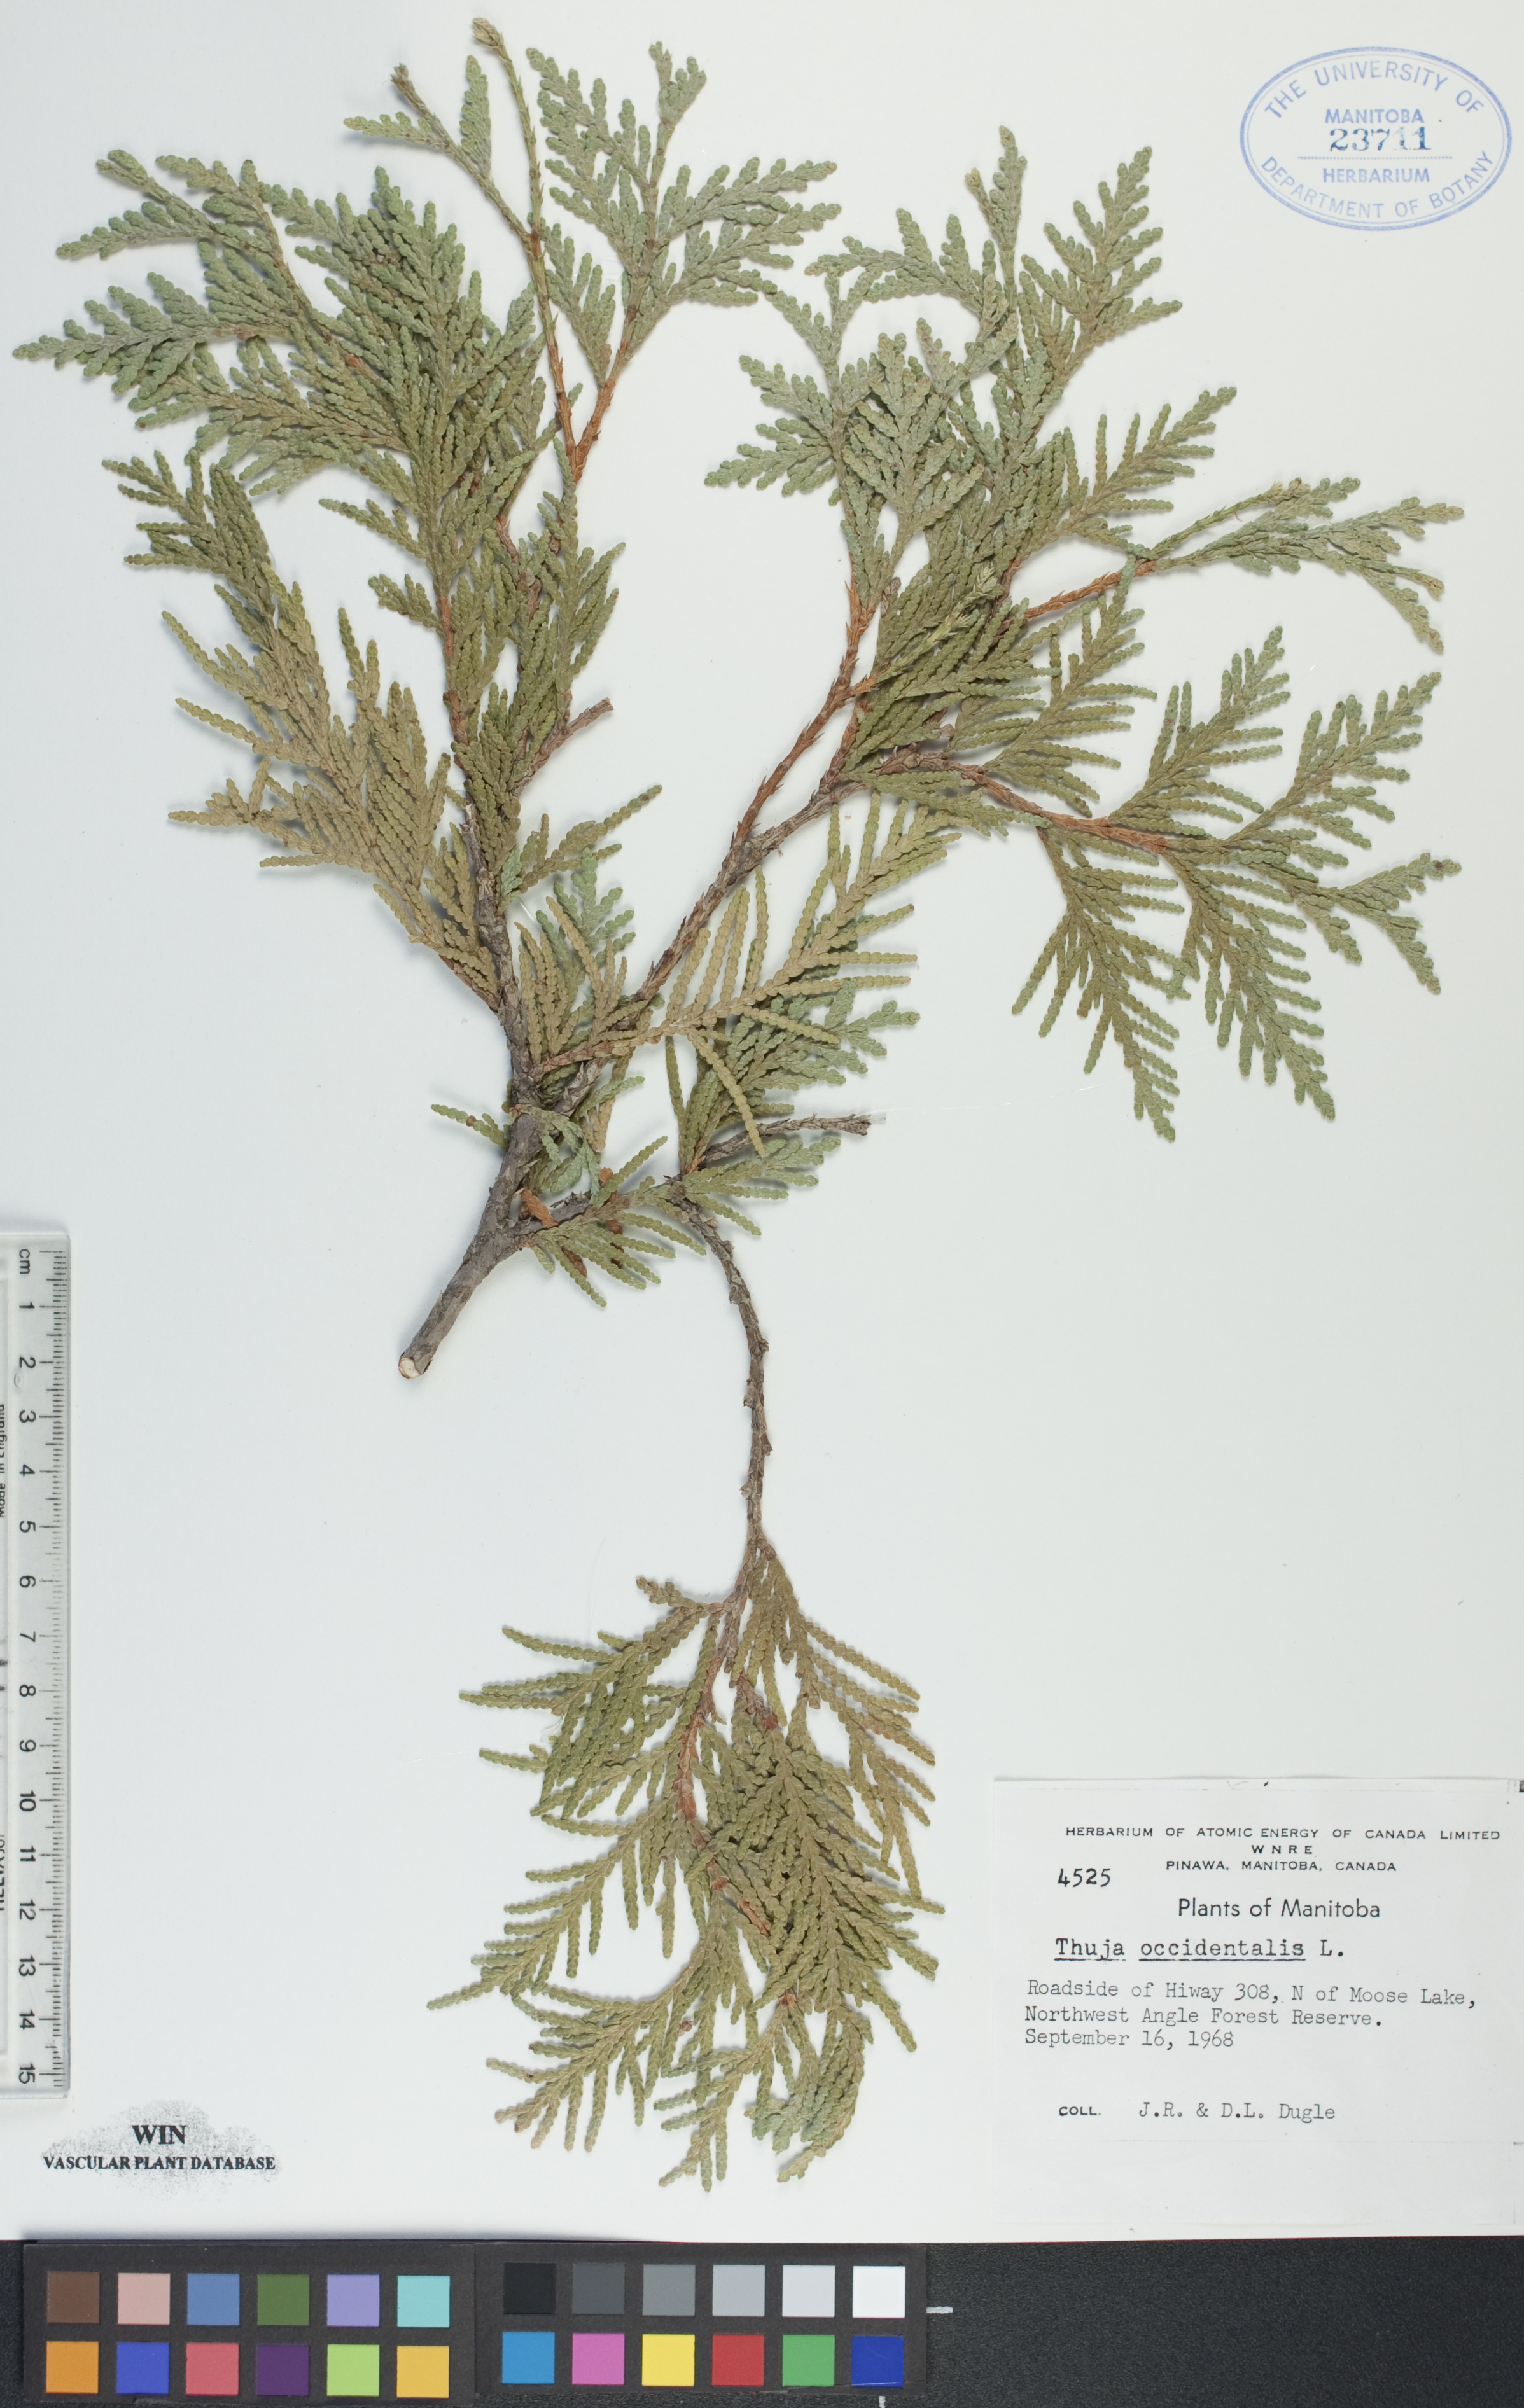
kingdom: Plantae
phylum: Tracheophyta
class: Pinopsida
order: Pinales
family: Cupressaceae
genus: Thuja
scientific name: Thuja occidentalis
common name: Northern white-cedar
